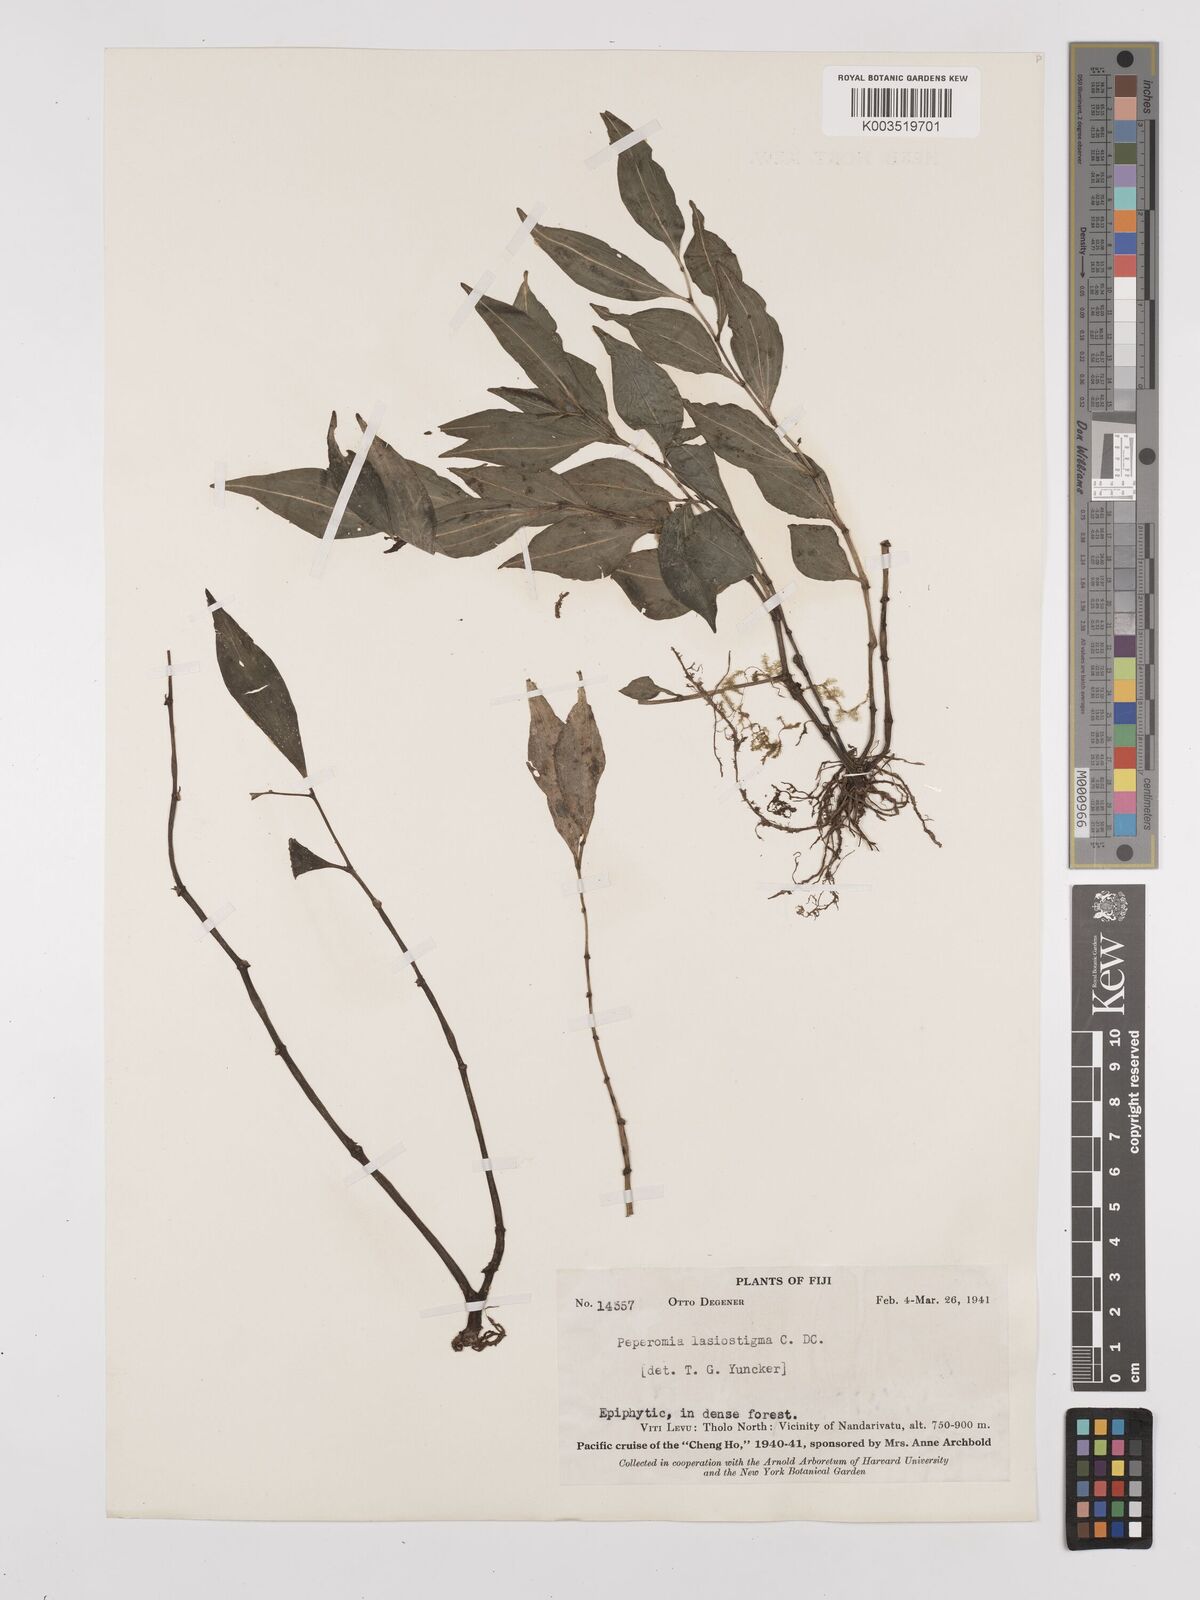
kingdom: Plantae
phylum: Tracheophyta
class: Magnoliopsida
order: Piperales
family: Piperaceae
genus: Peperomia
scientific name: Peperomia lasiostigma
